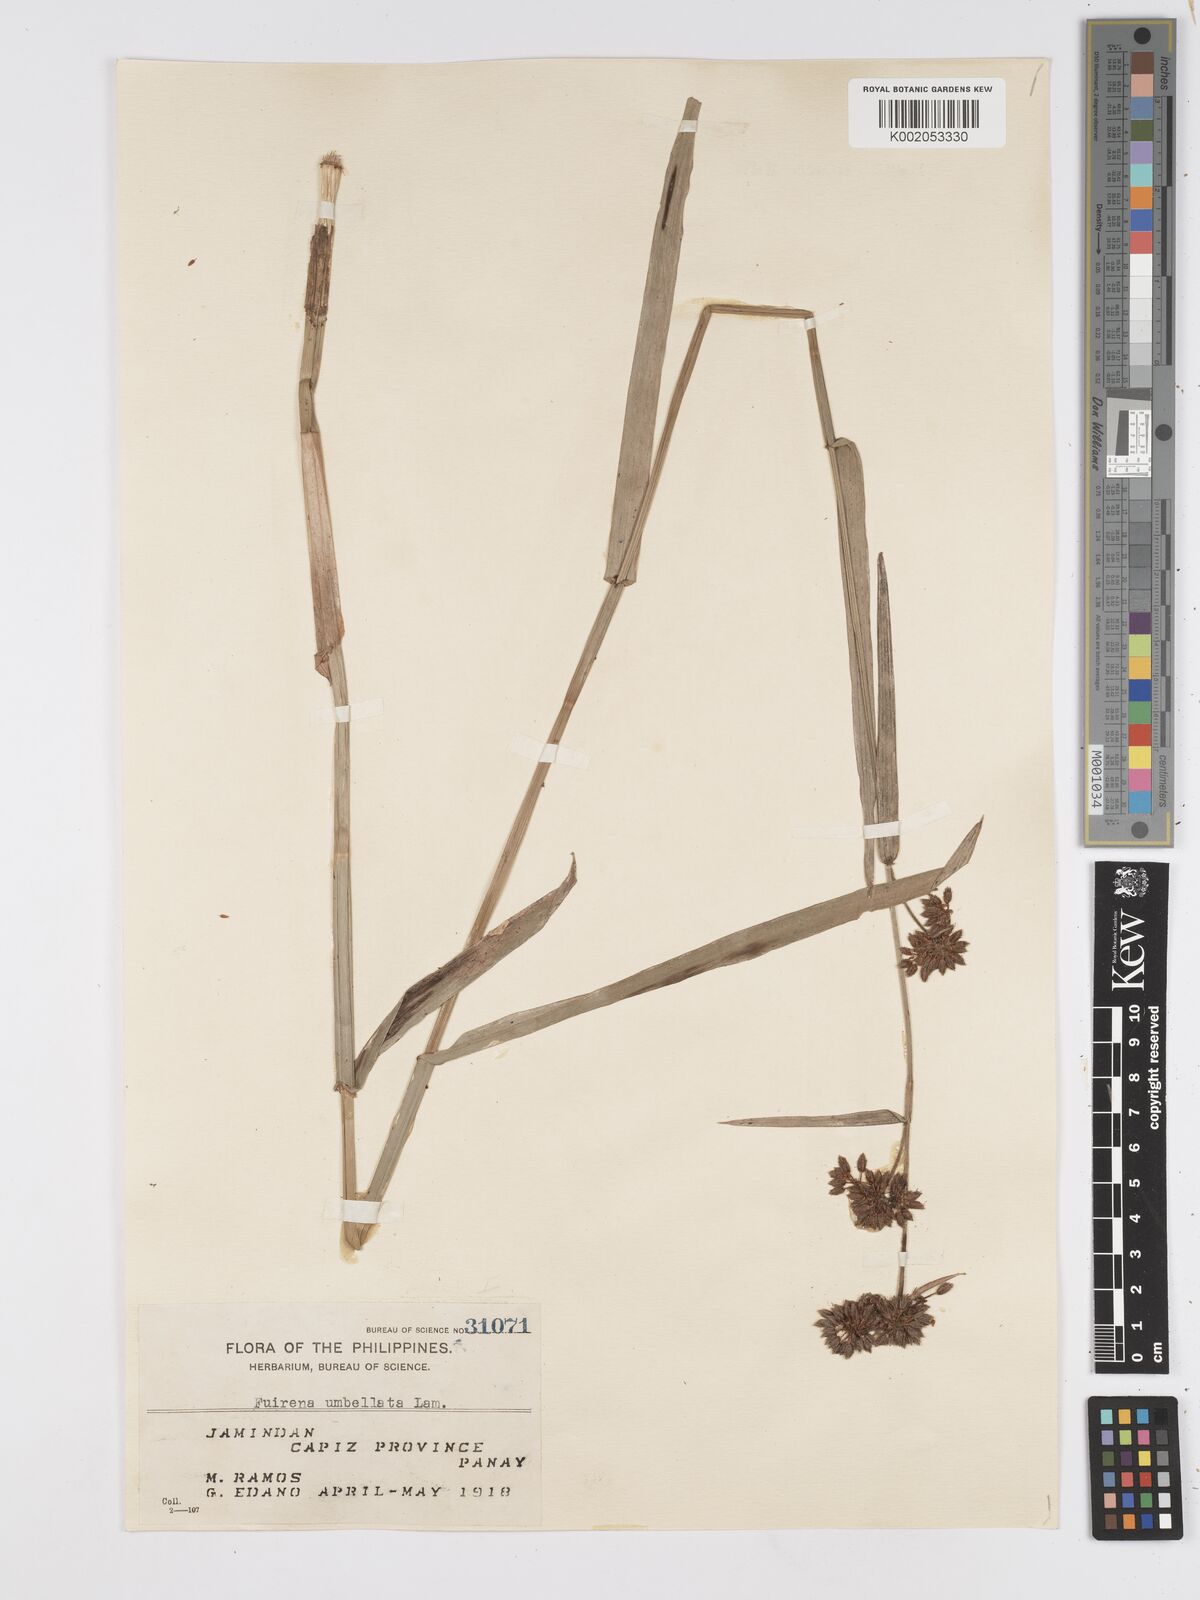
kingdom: Plantae
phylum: Tracheophyta
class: Liliopsida
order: Poales
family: Cyperaceae
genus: Fuirena
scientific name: Fuirena umbellata
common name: Yefen
